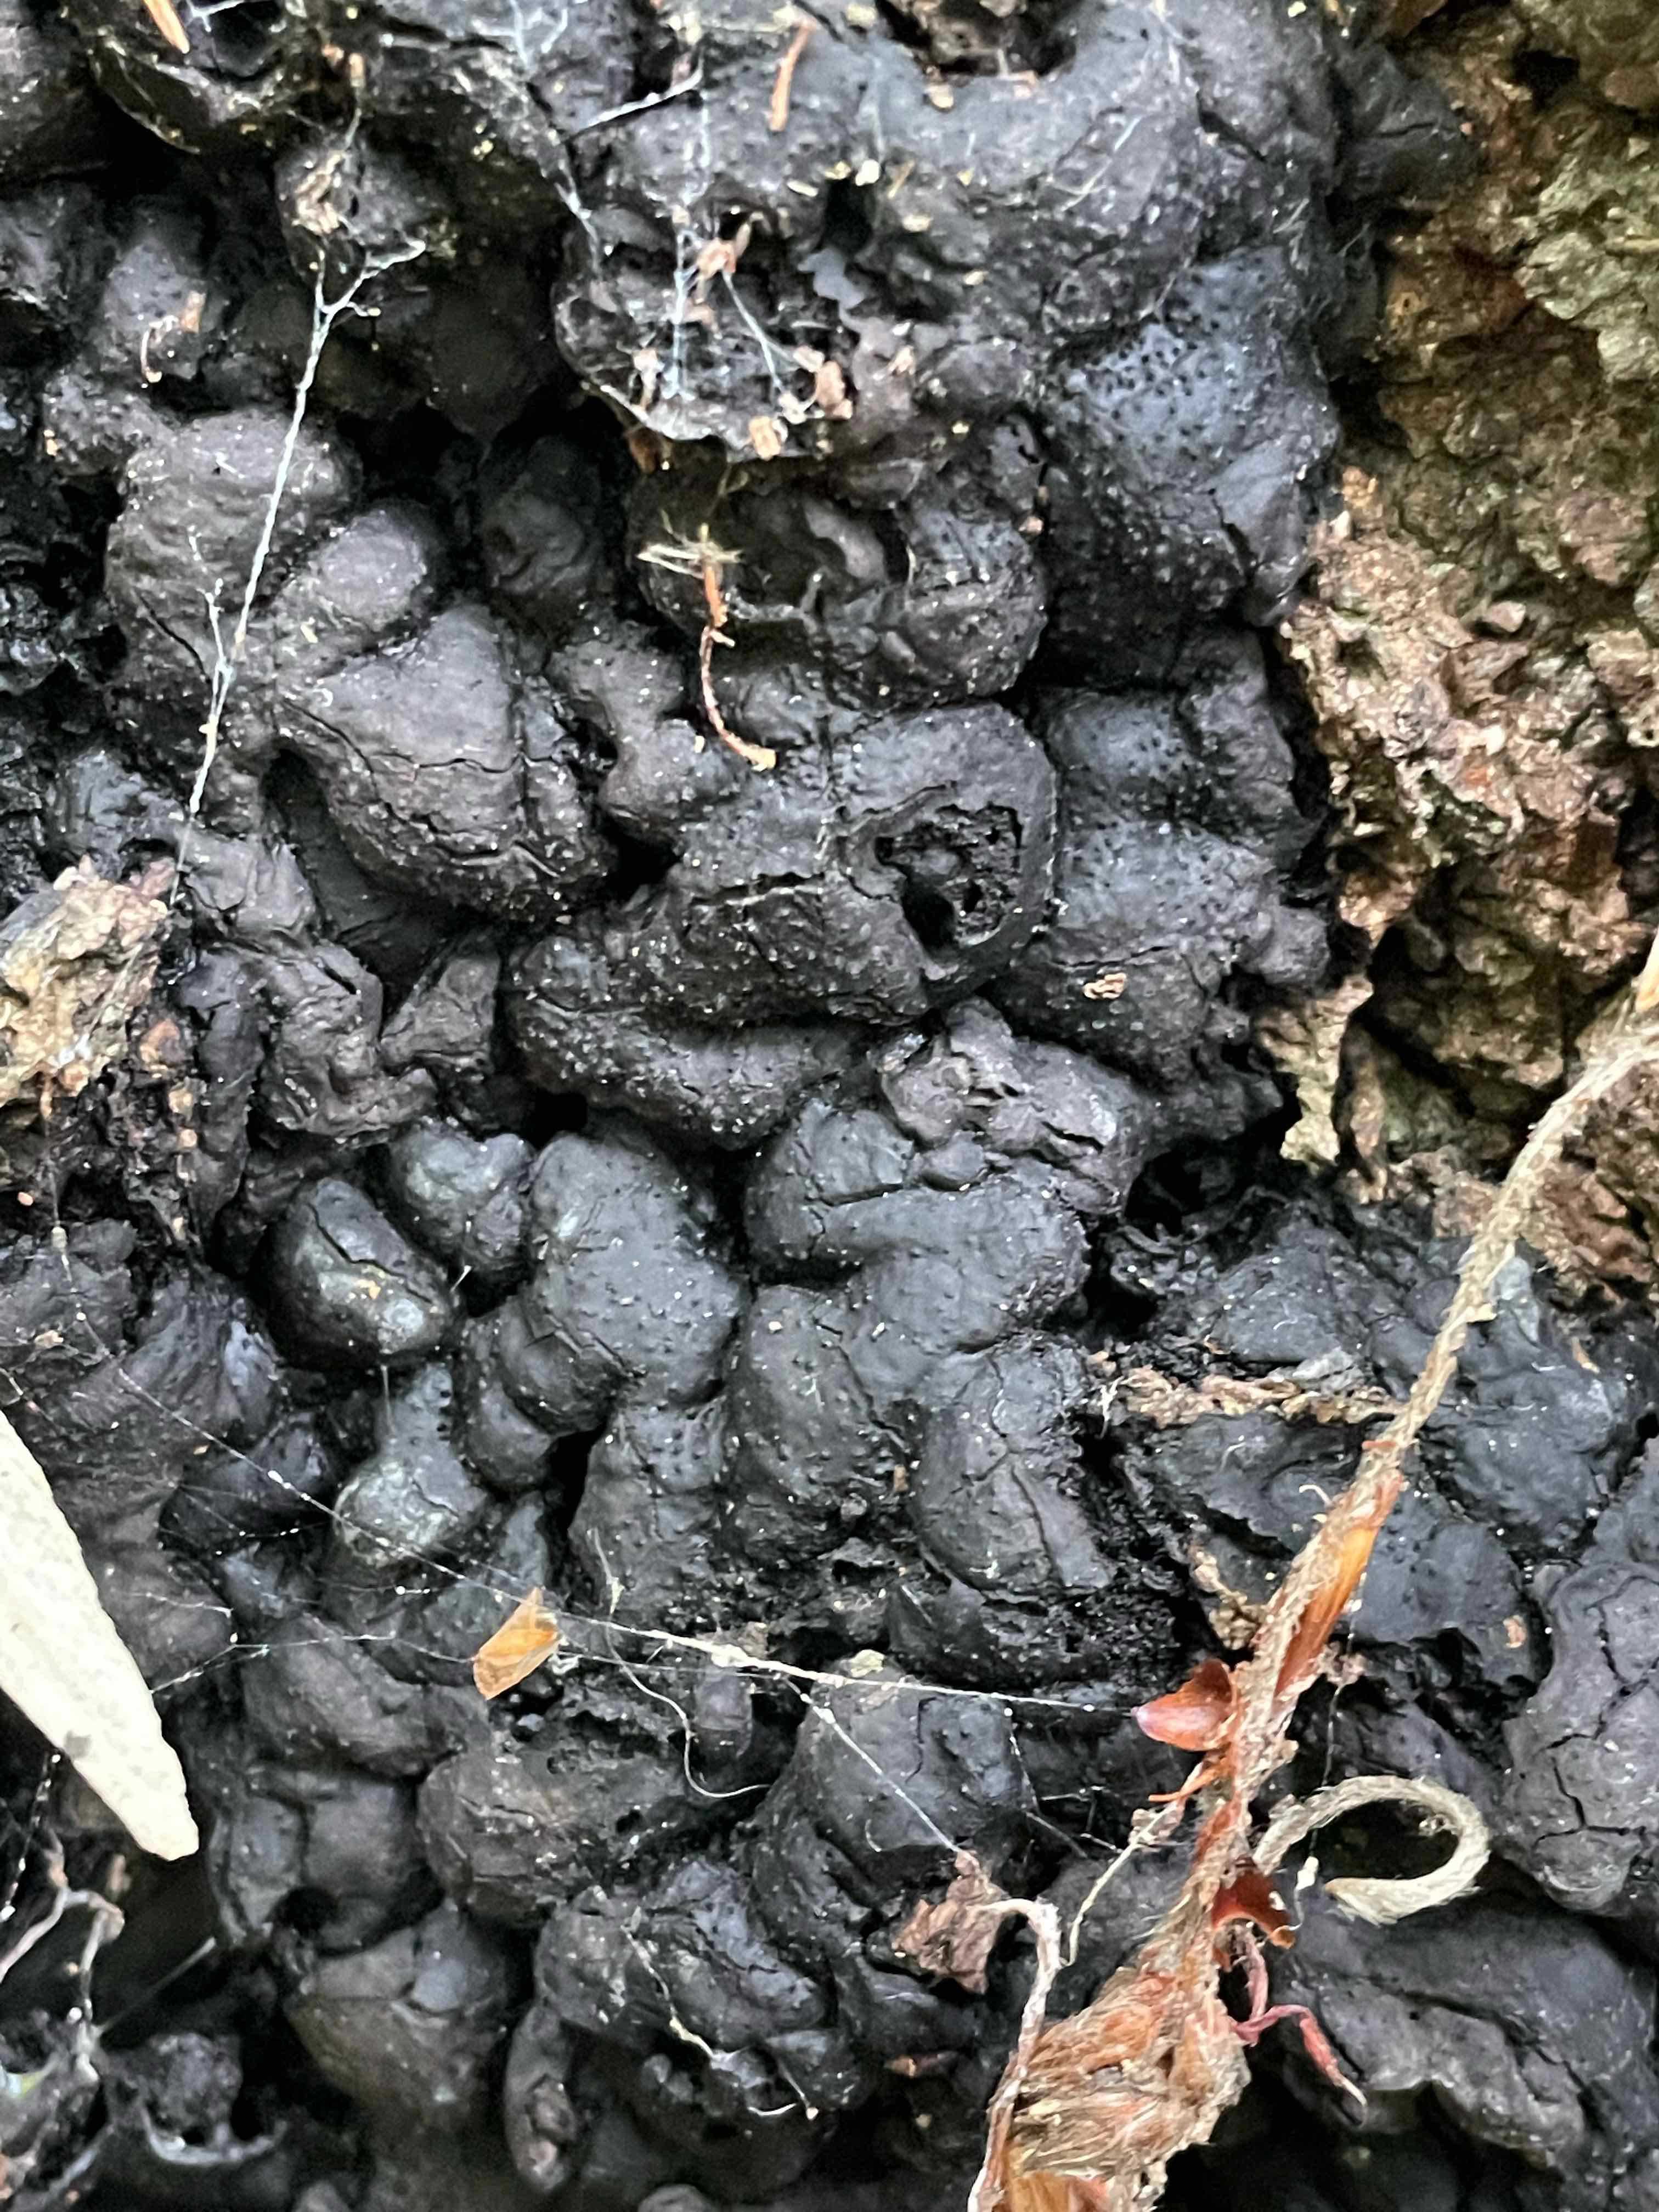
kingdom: Fungi
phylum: Ascomycota
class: Sordariomycetes
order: Xylariales
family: Xylariaceae
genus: Kretzschmaria
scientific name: Kretzschmaria deusta
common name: stor kulsvamp
